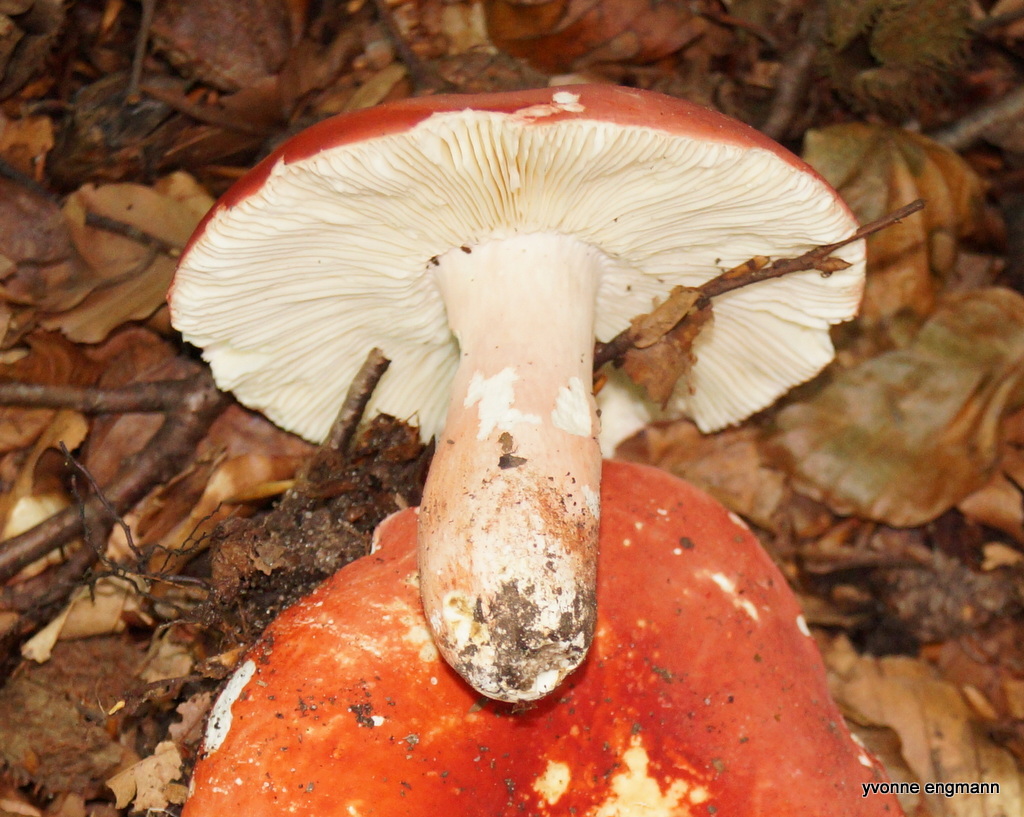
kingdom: Fungi
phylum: Basidiomycota
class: Agaricomycetes
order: Russulales
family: Russulaceae
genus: Russula
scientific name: Russula rosea
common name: fastkødet skørhat
